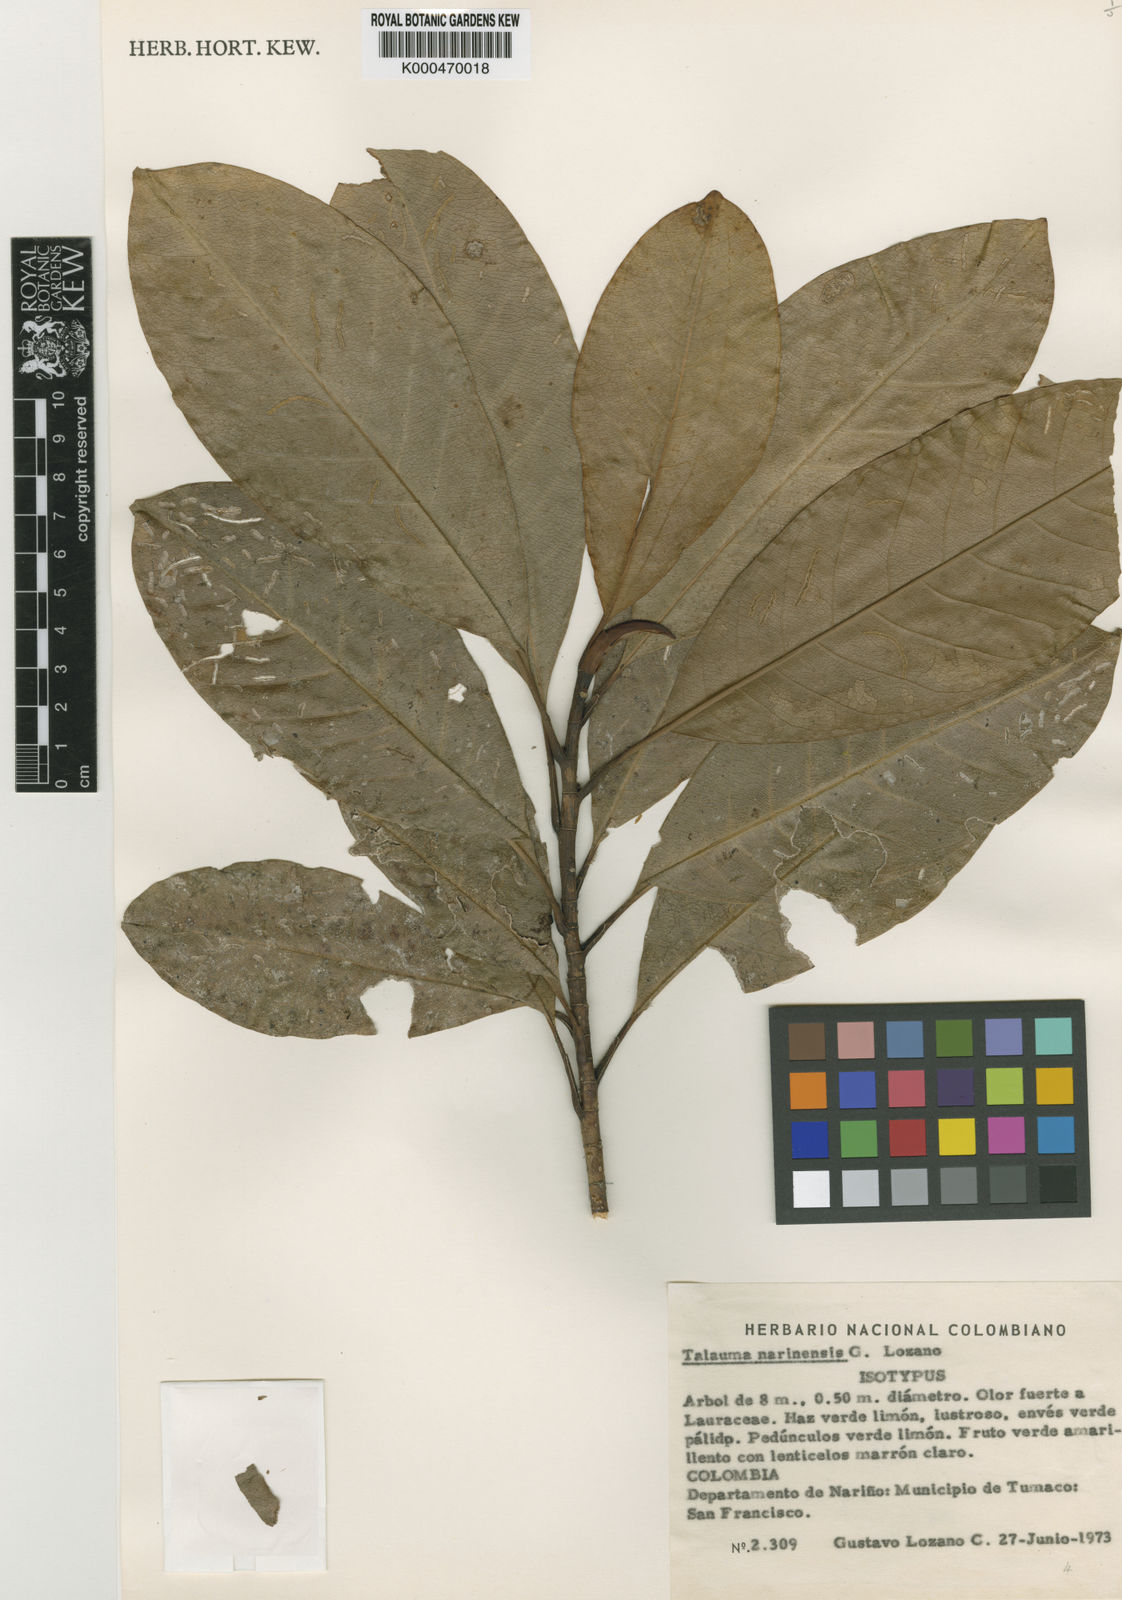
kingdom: Plantae
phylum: Tracheophyta
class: Magnoliopsida
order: Magnoliales
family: Magnoliaceae
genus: Magnolia
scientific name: Magnolia narinensis
